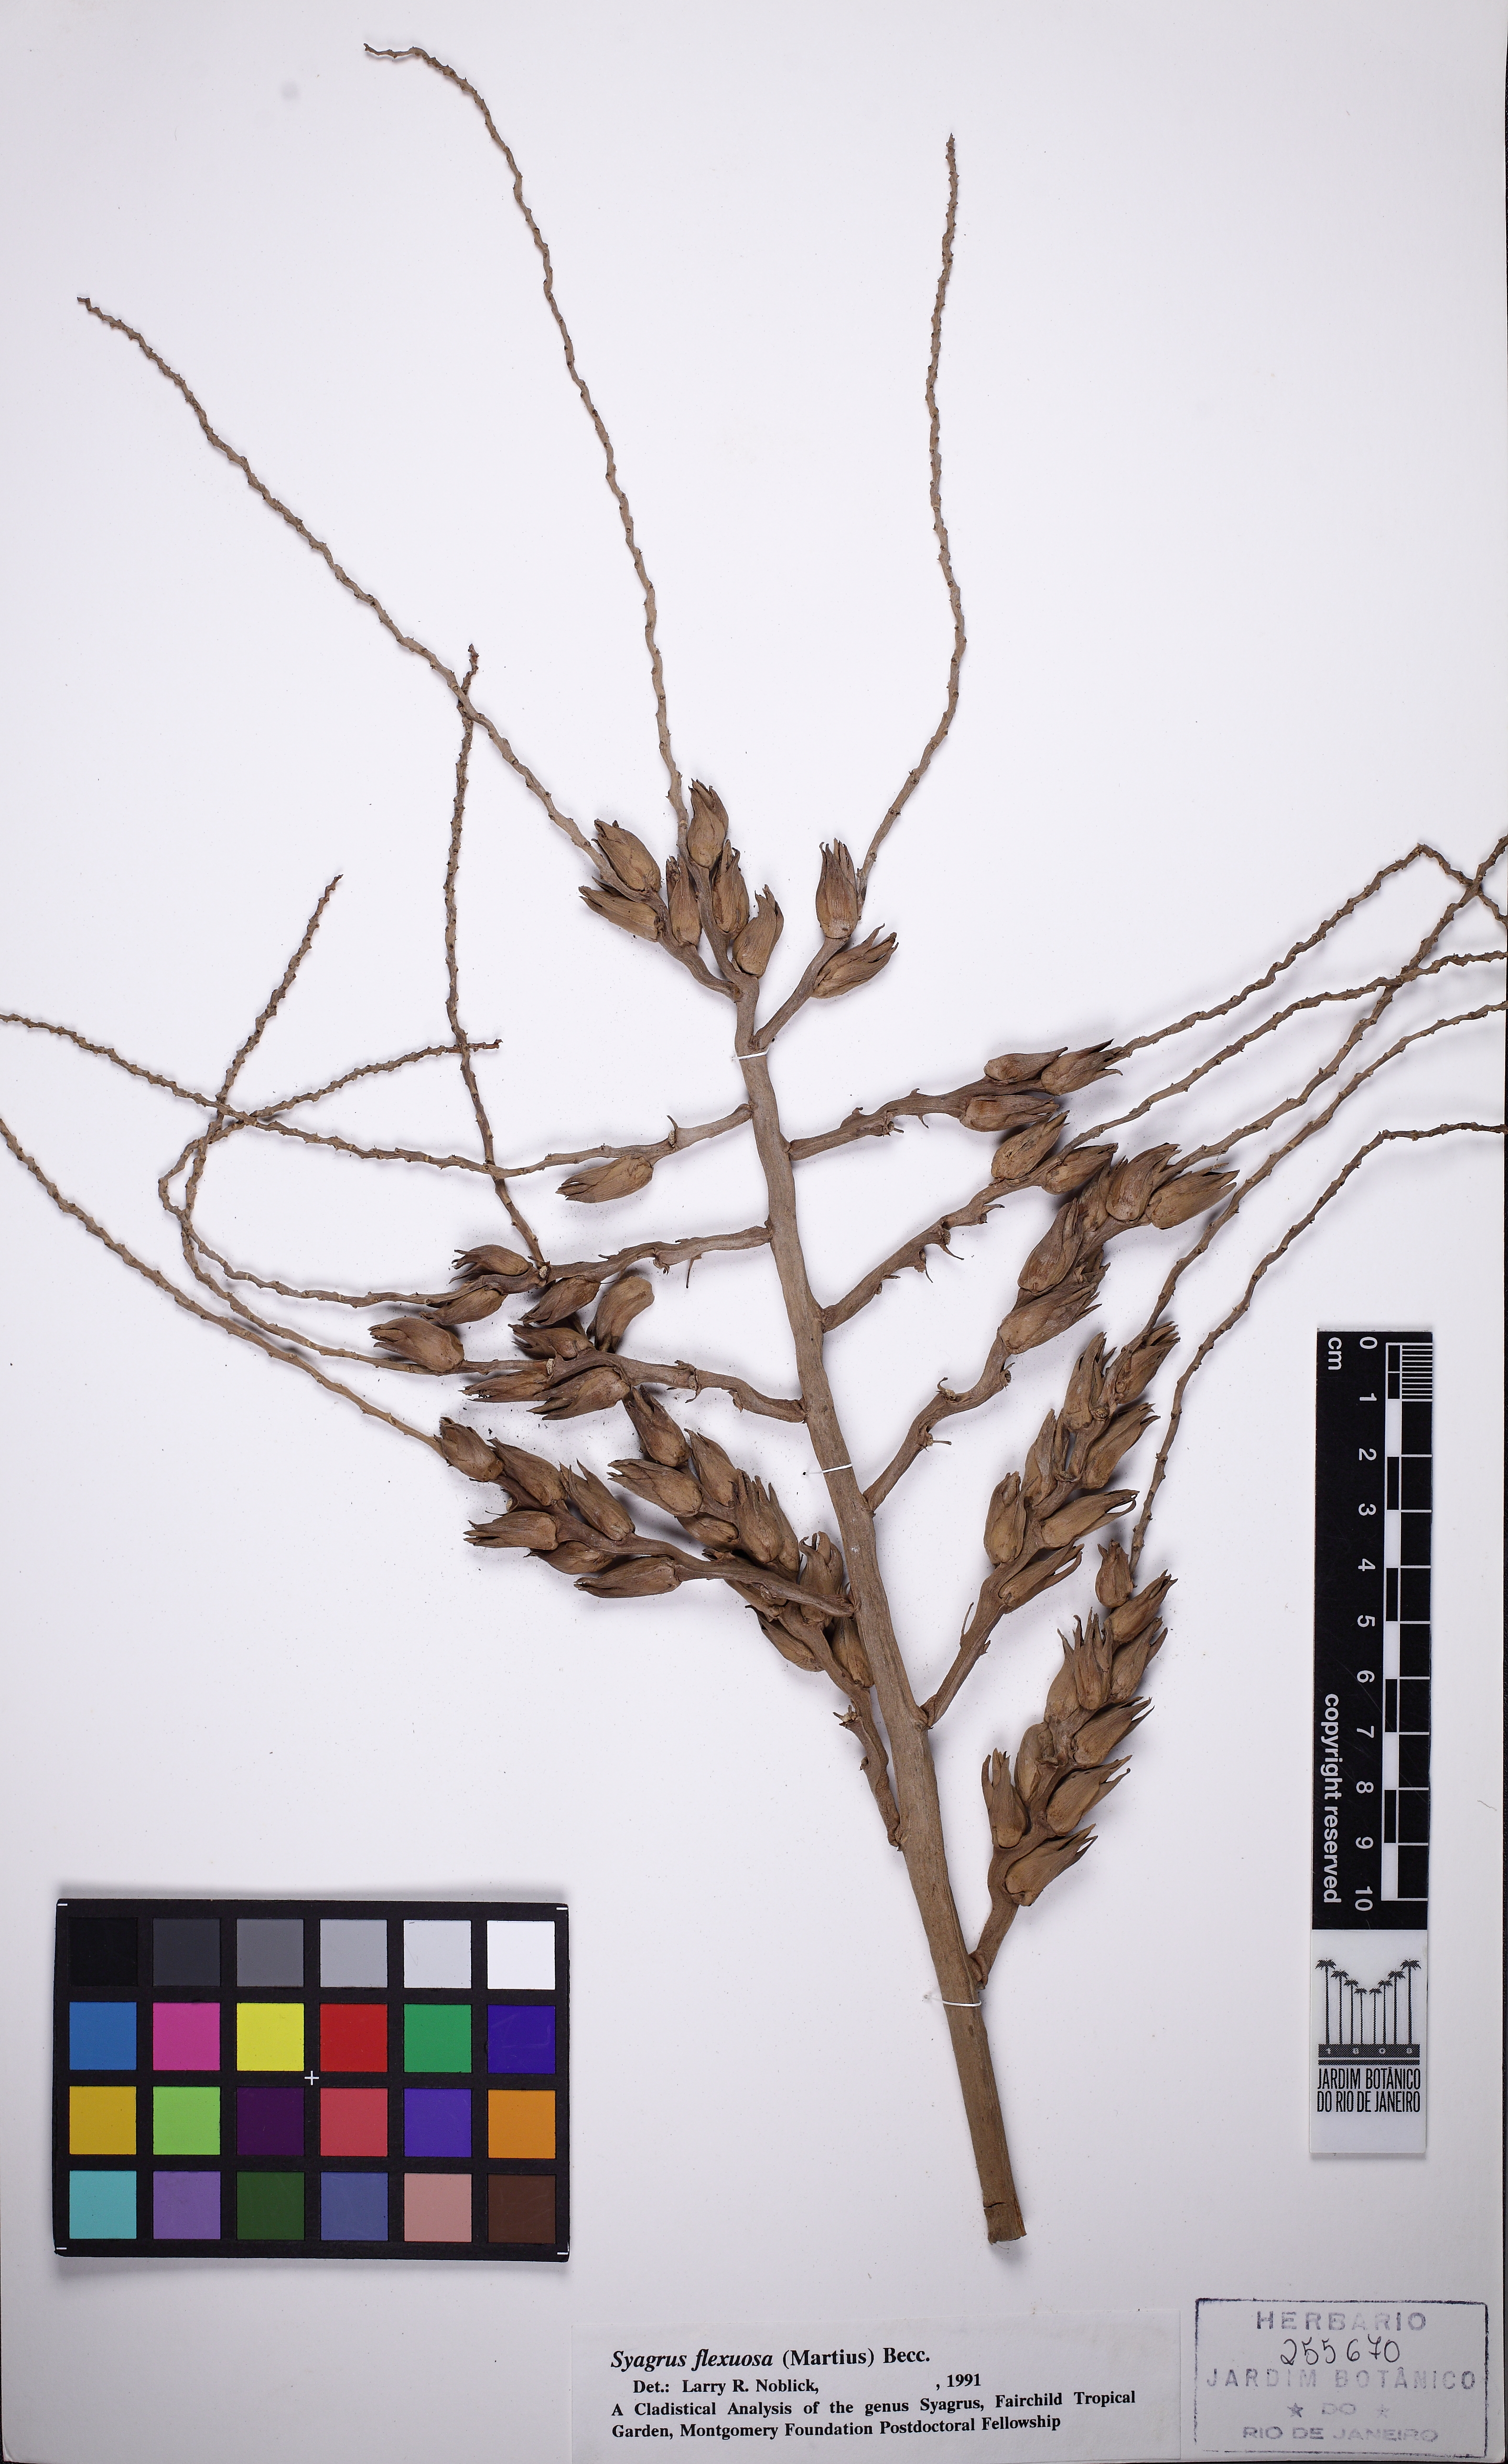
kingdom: Plantae
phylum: Tracheophyta
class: Liliopsida
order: Arecales
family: Arecaceae
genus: Syagrus
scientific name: Syagrus flexuosa
